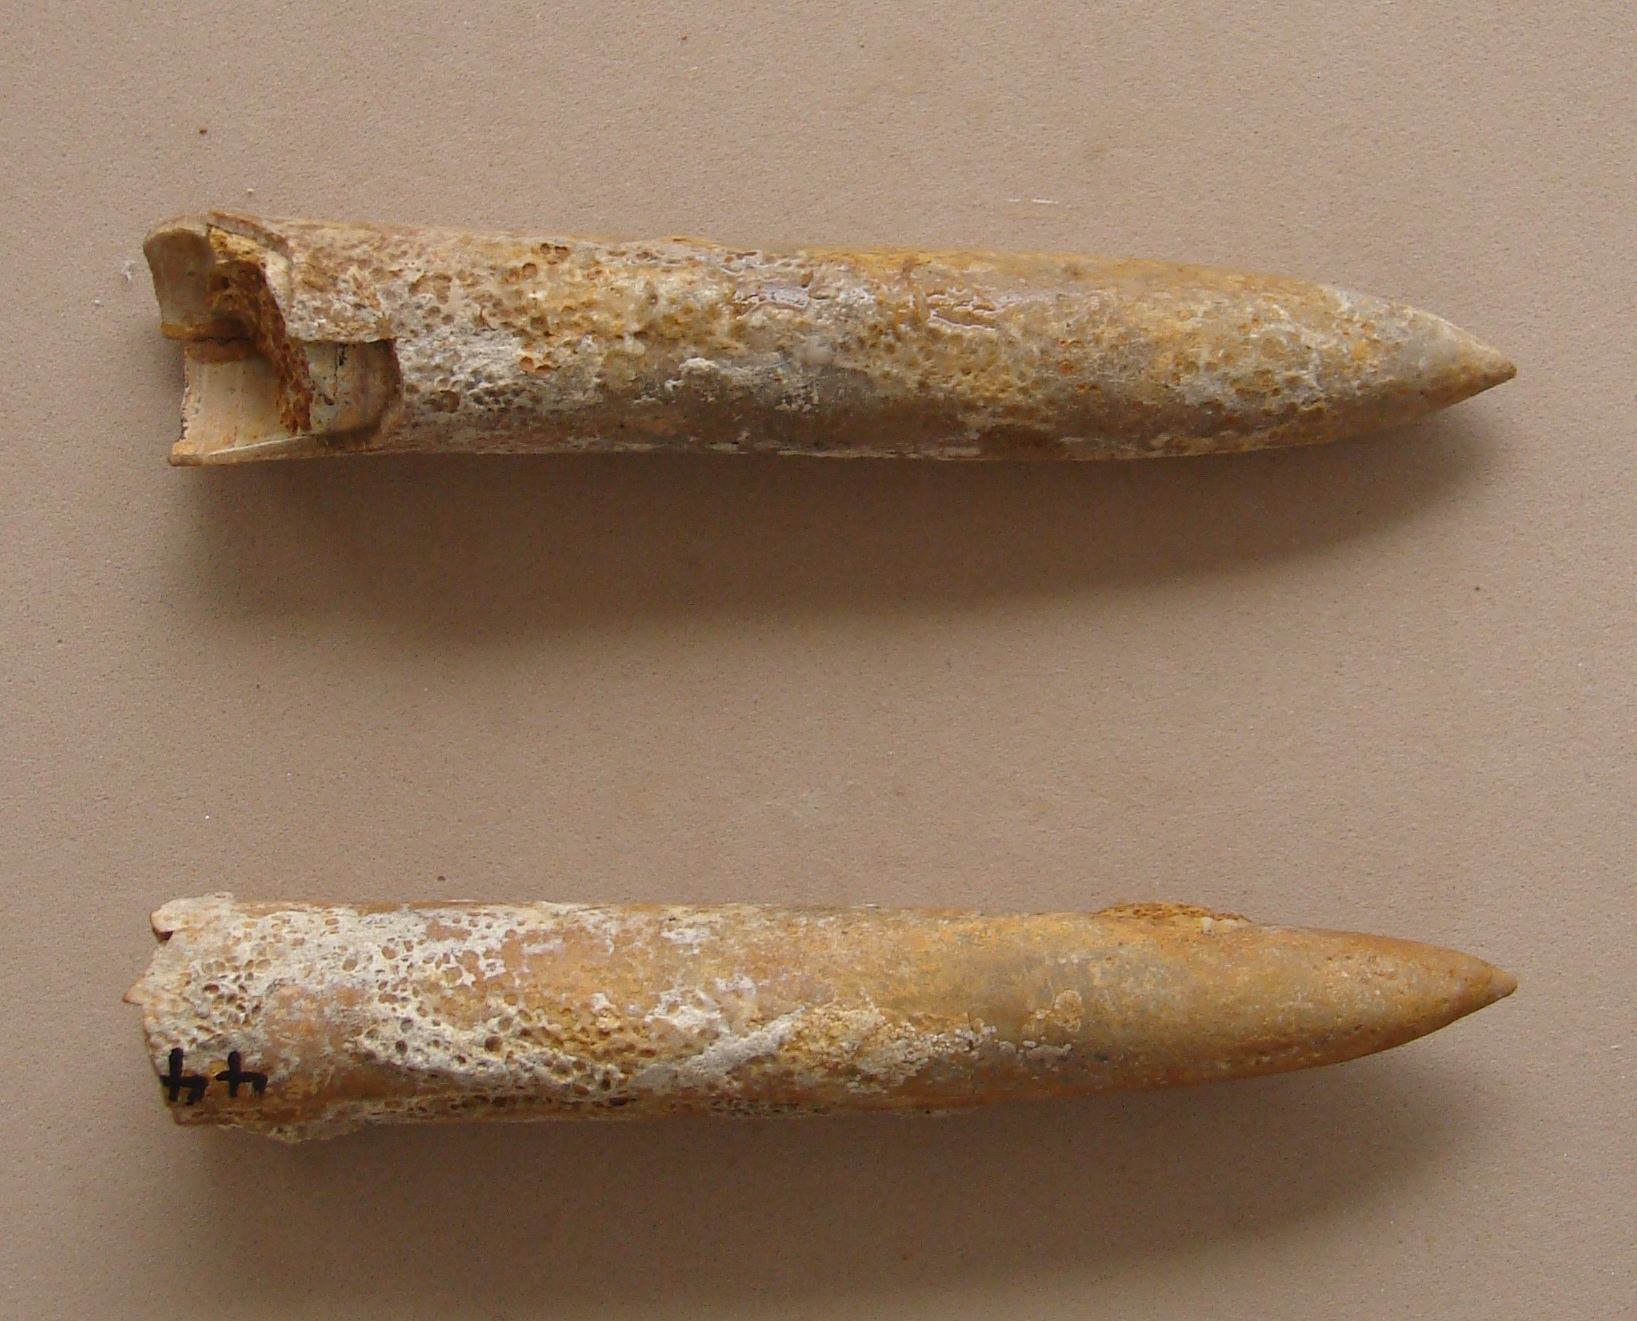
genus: Pachybelemnopsis
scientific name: Pachybelemnopsis
